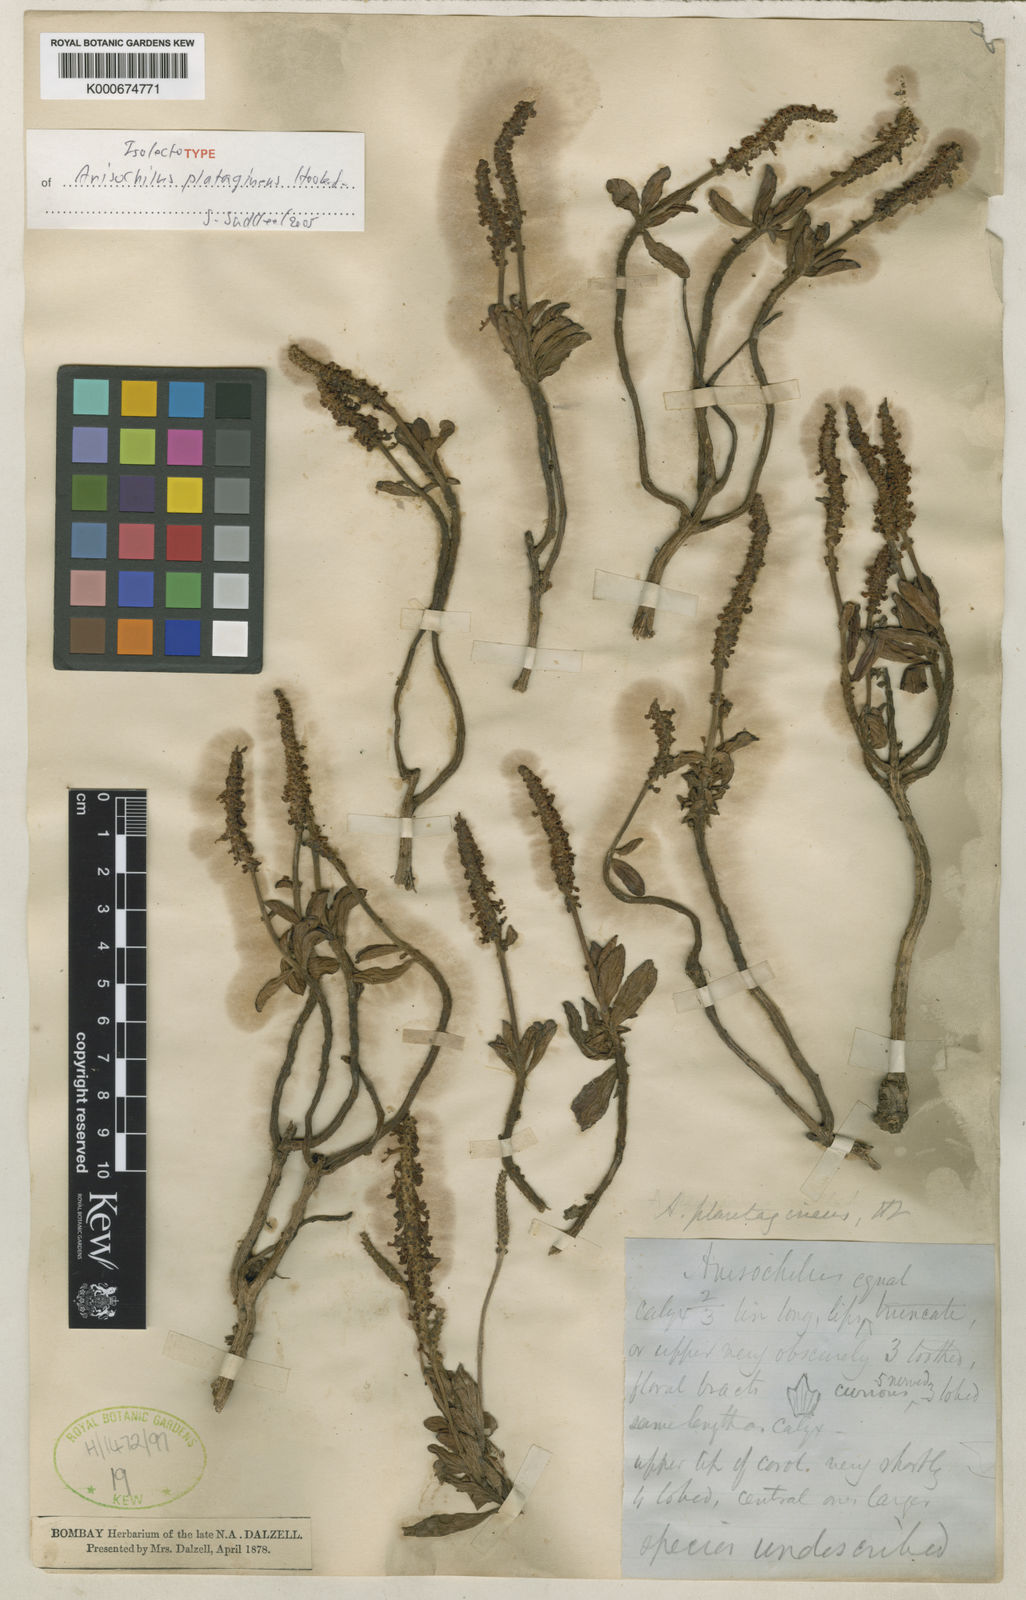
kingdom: Plantae
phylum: Tracheophyta
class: Magnoliopsida
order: Lamiales
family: Lamiaceae
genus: Coleus
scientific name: Coleus plantagineus
